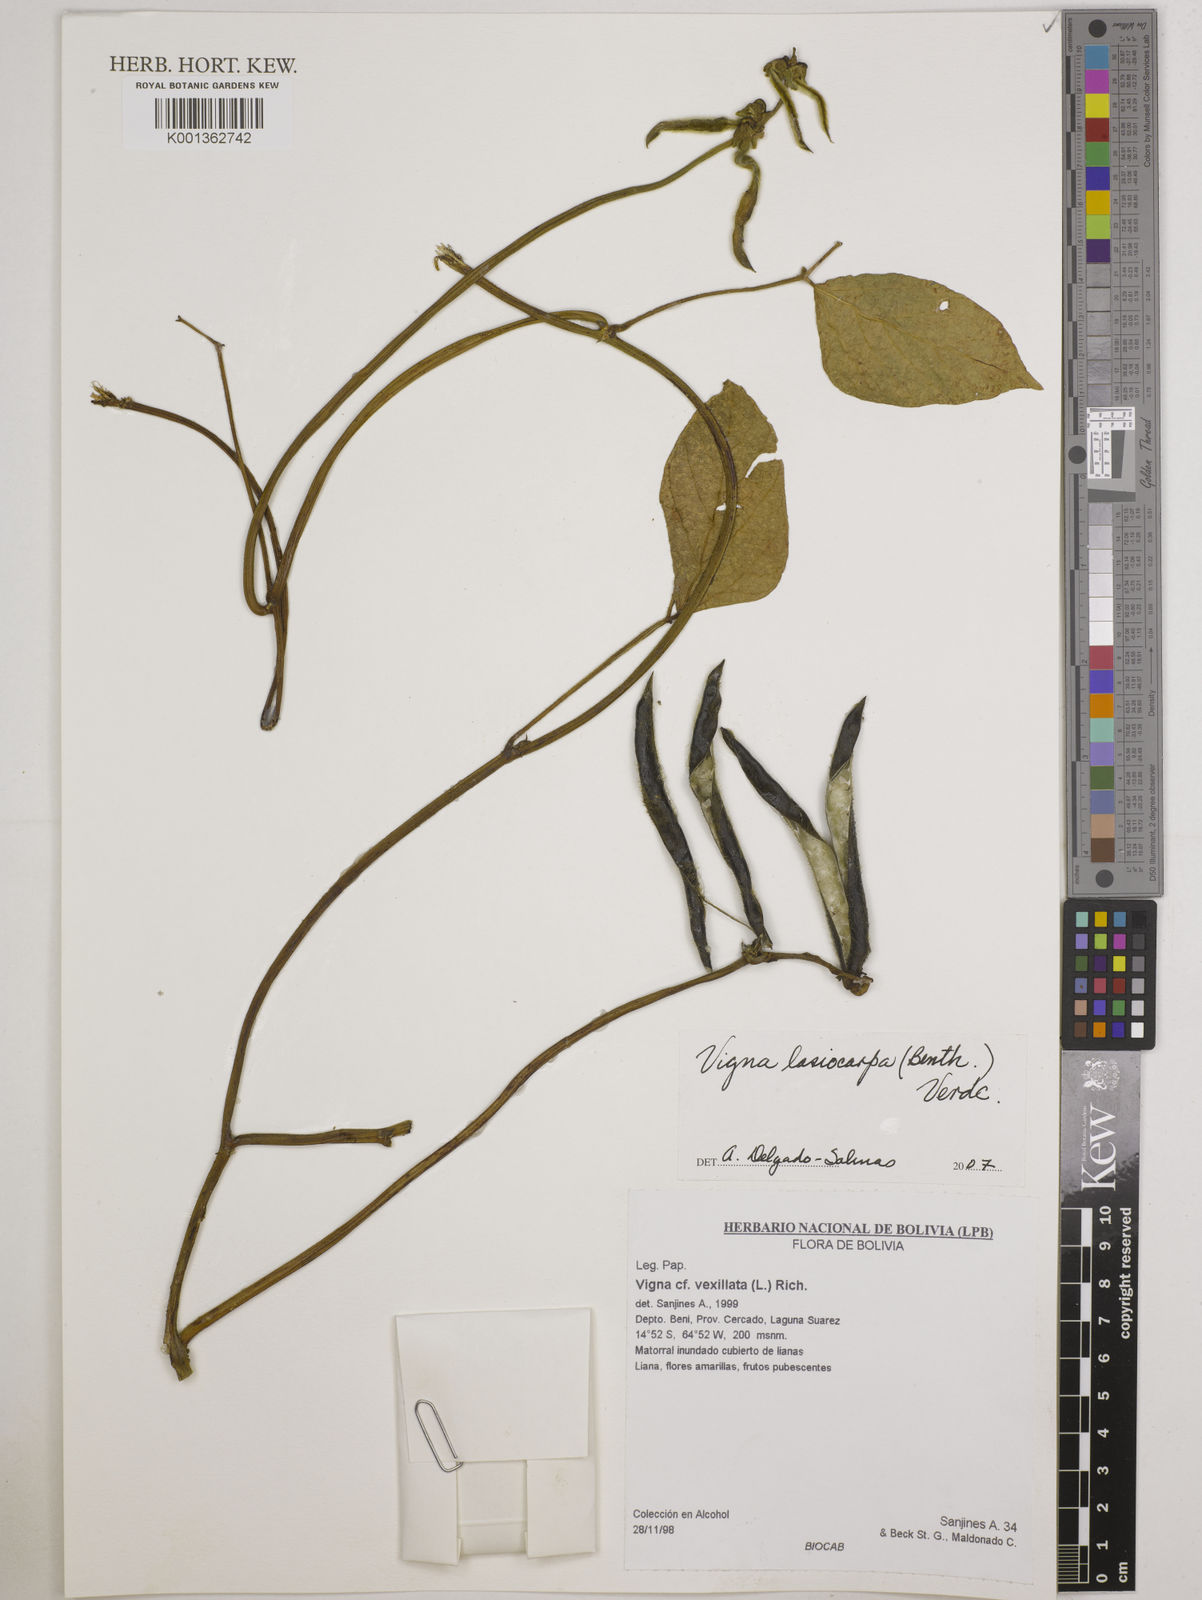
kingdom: Plantae
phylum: Tracheophyta
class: Magnoliopsida
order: Fabales
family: Fabaceae
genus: Vigna
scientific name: Vigna lasiocarpa
